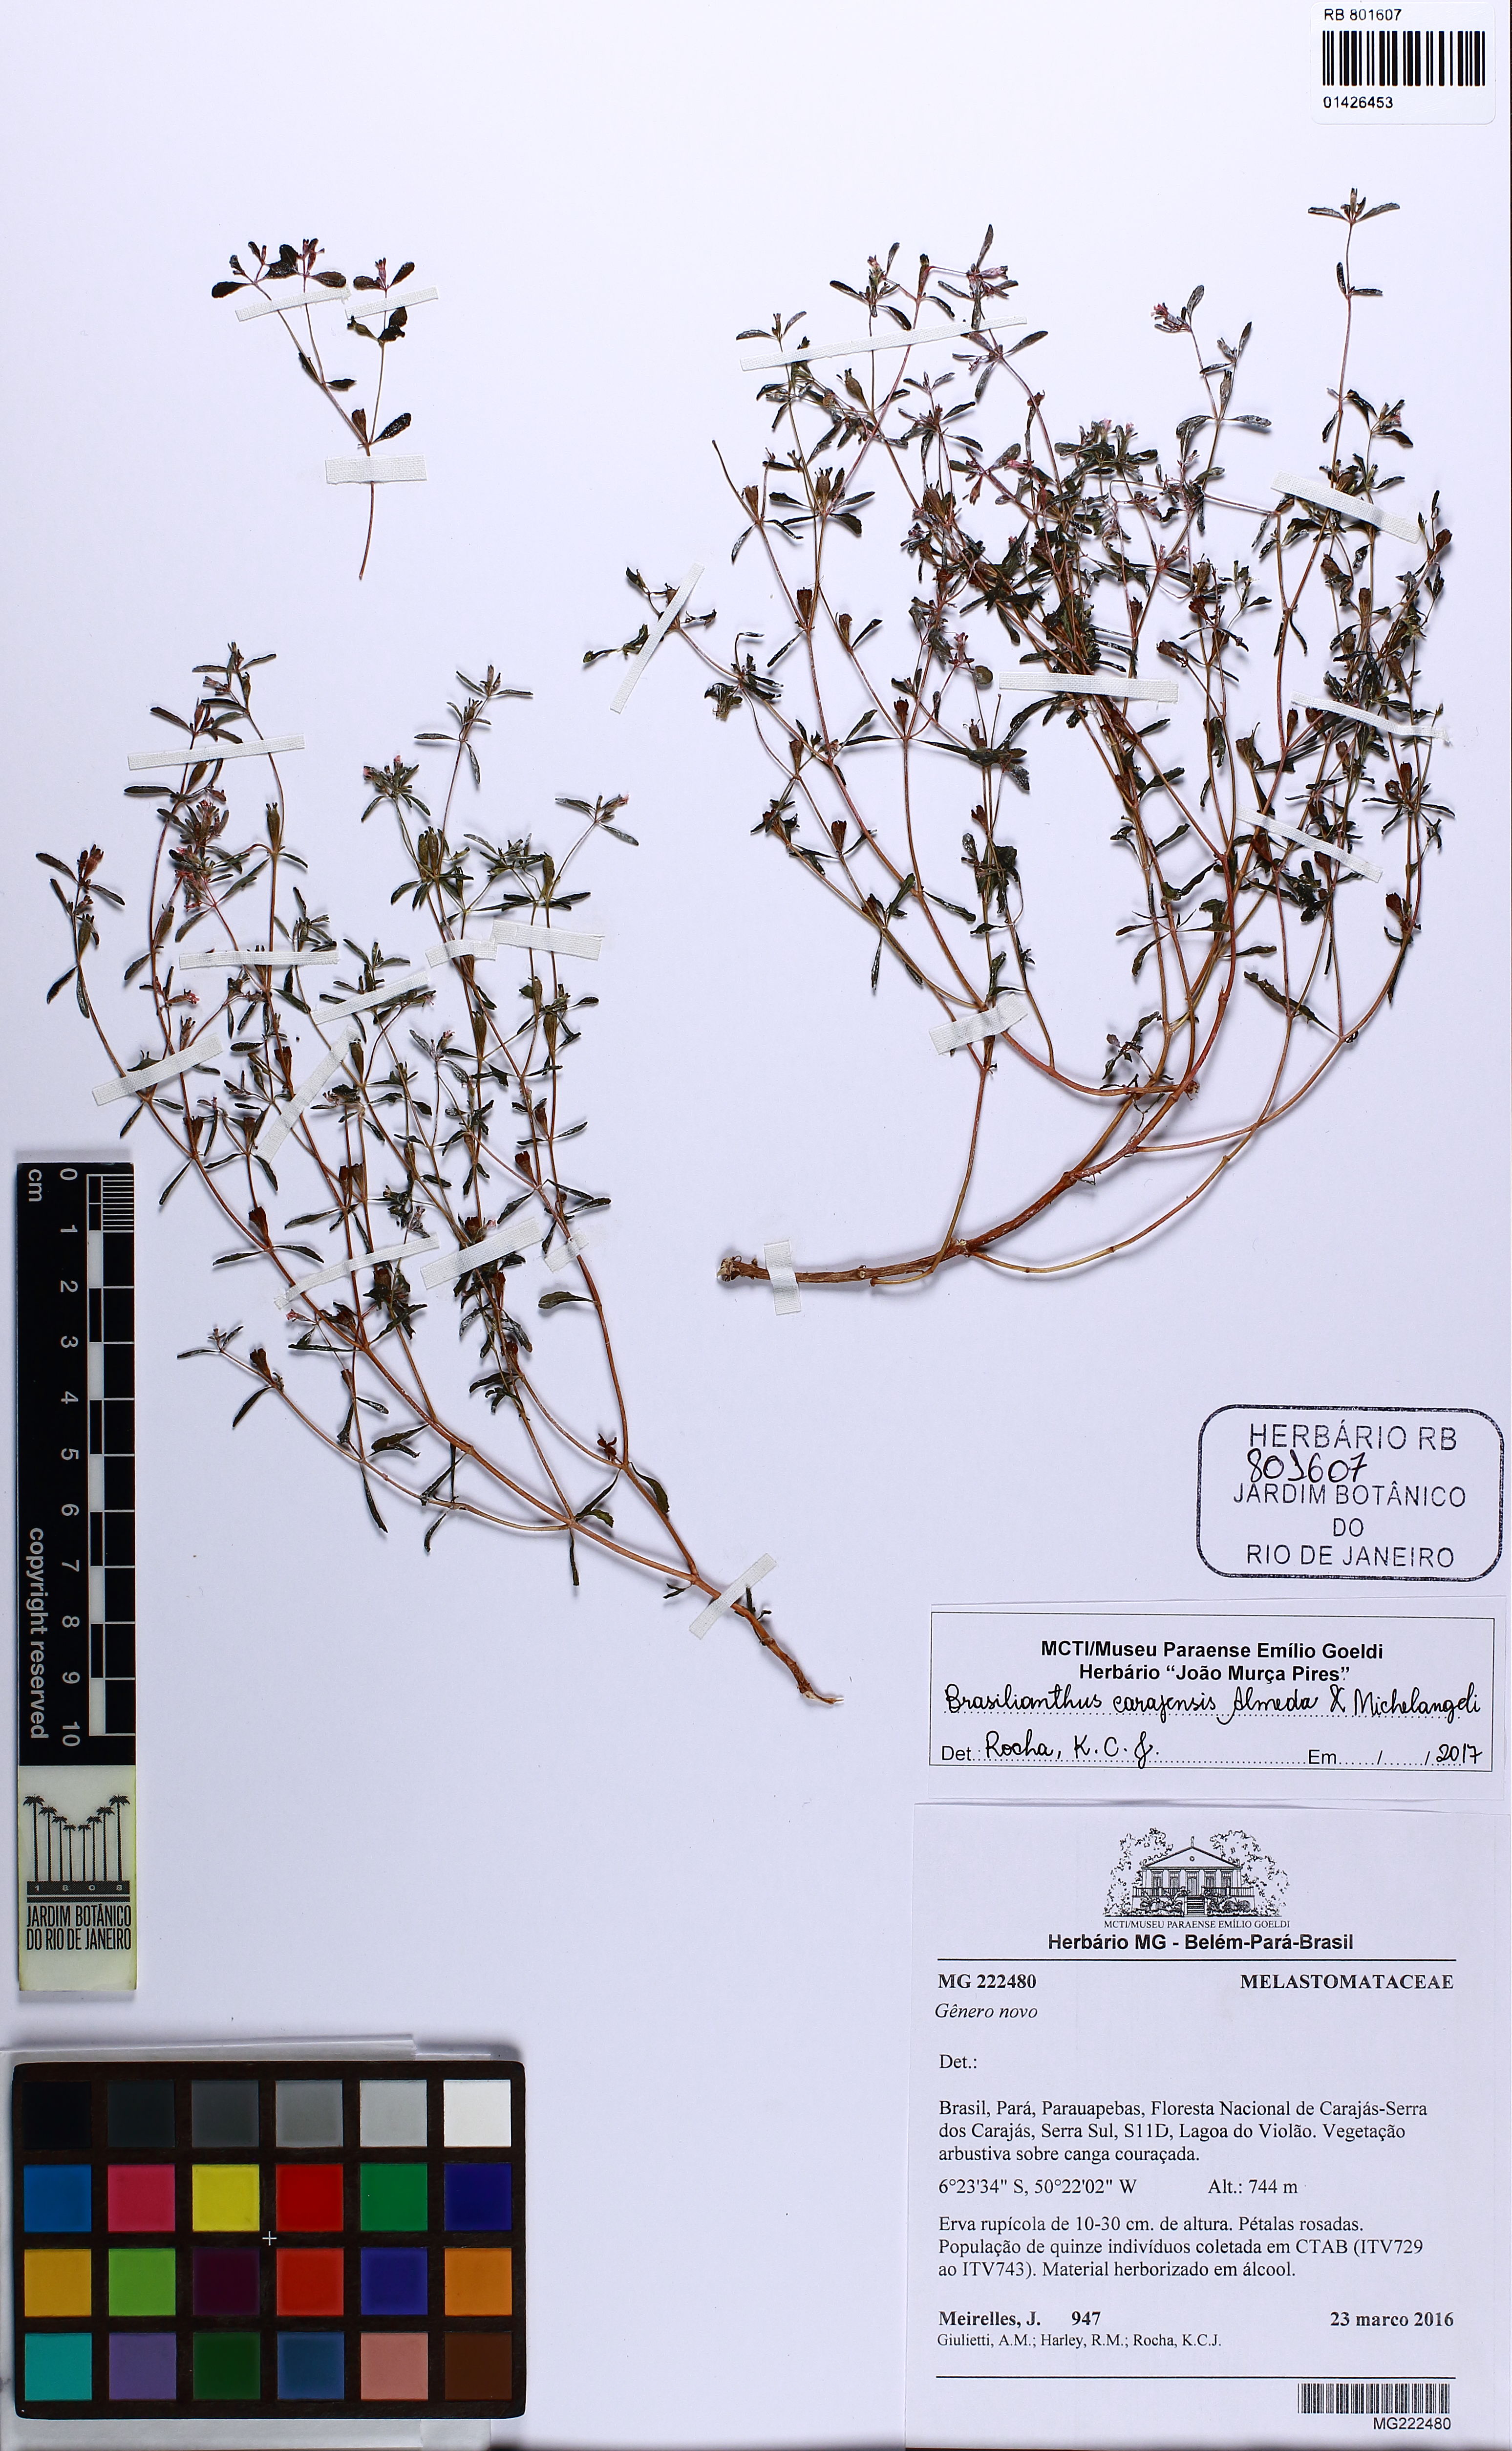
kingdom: Plantae
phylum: Tracheophyta
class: Magnoliopsida
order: Myrtales
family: Melastomataceae
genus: Brasilianthus
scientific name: Brasilianthus carajensis
